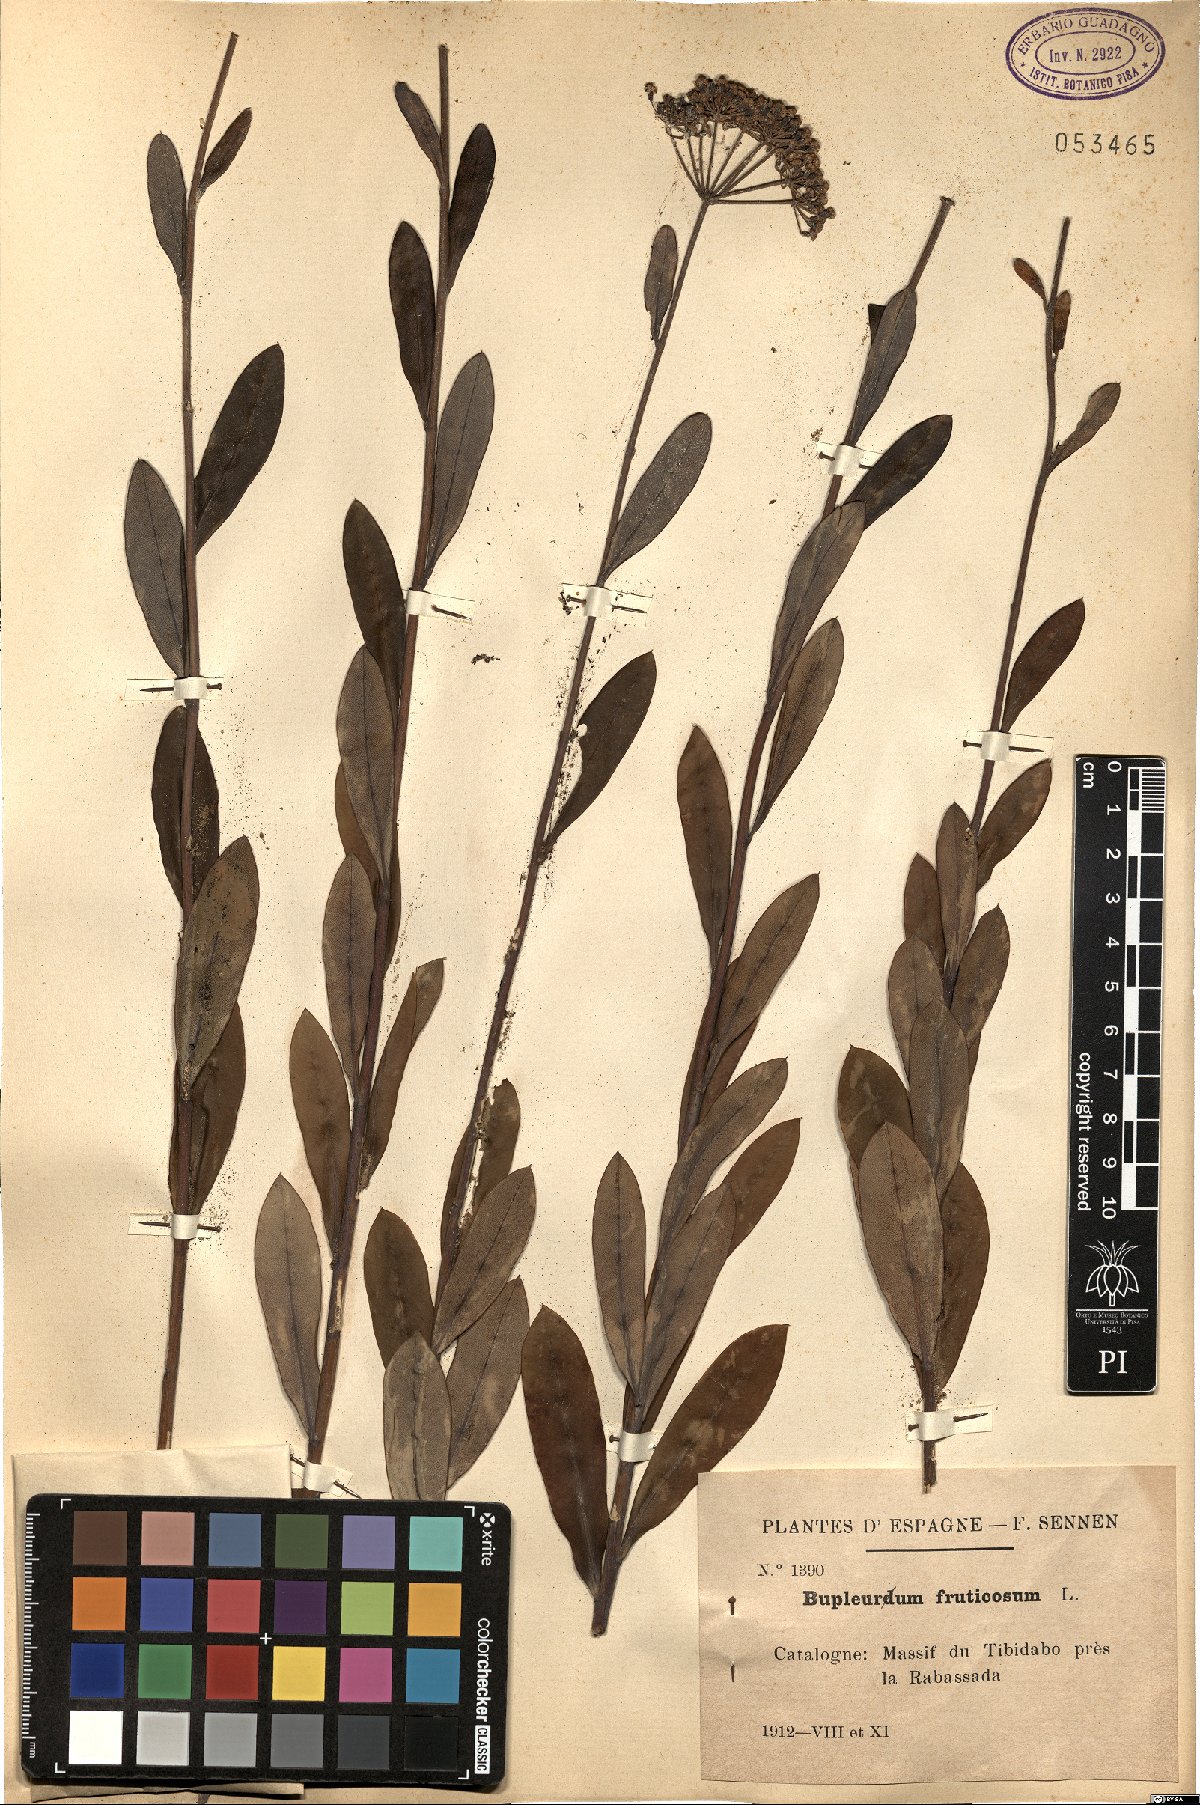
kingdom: Plantae
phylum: Tracheophyta
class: Magnoliopsida
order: Apiales
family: Apiaceae
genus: Bupleurum
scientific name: Bupleurum fruticosum
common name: Shrubby hare's-ear
